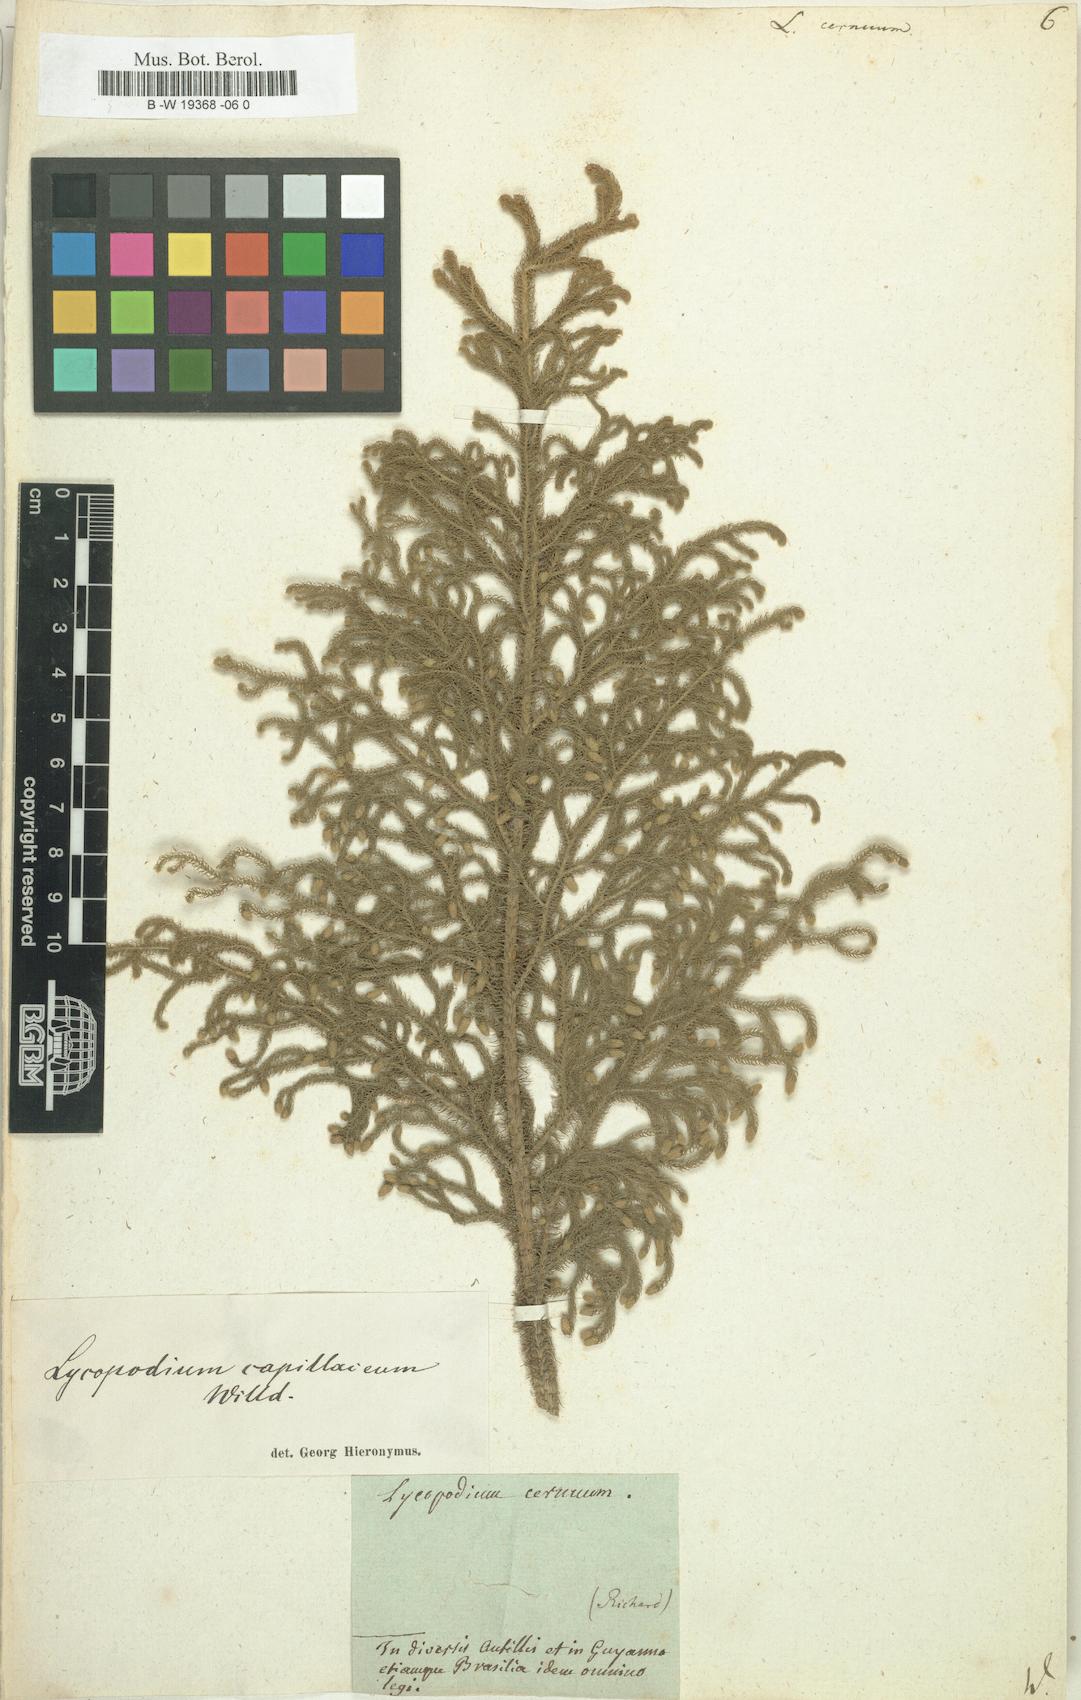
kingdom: Plantae
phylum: Tracheophyta
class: Lycopodiopsida
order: Lycopodiales
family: Lycopodiaceae
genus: Palhinhaea
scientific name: Palhinhaea cernua
